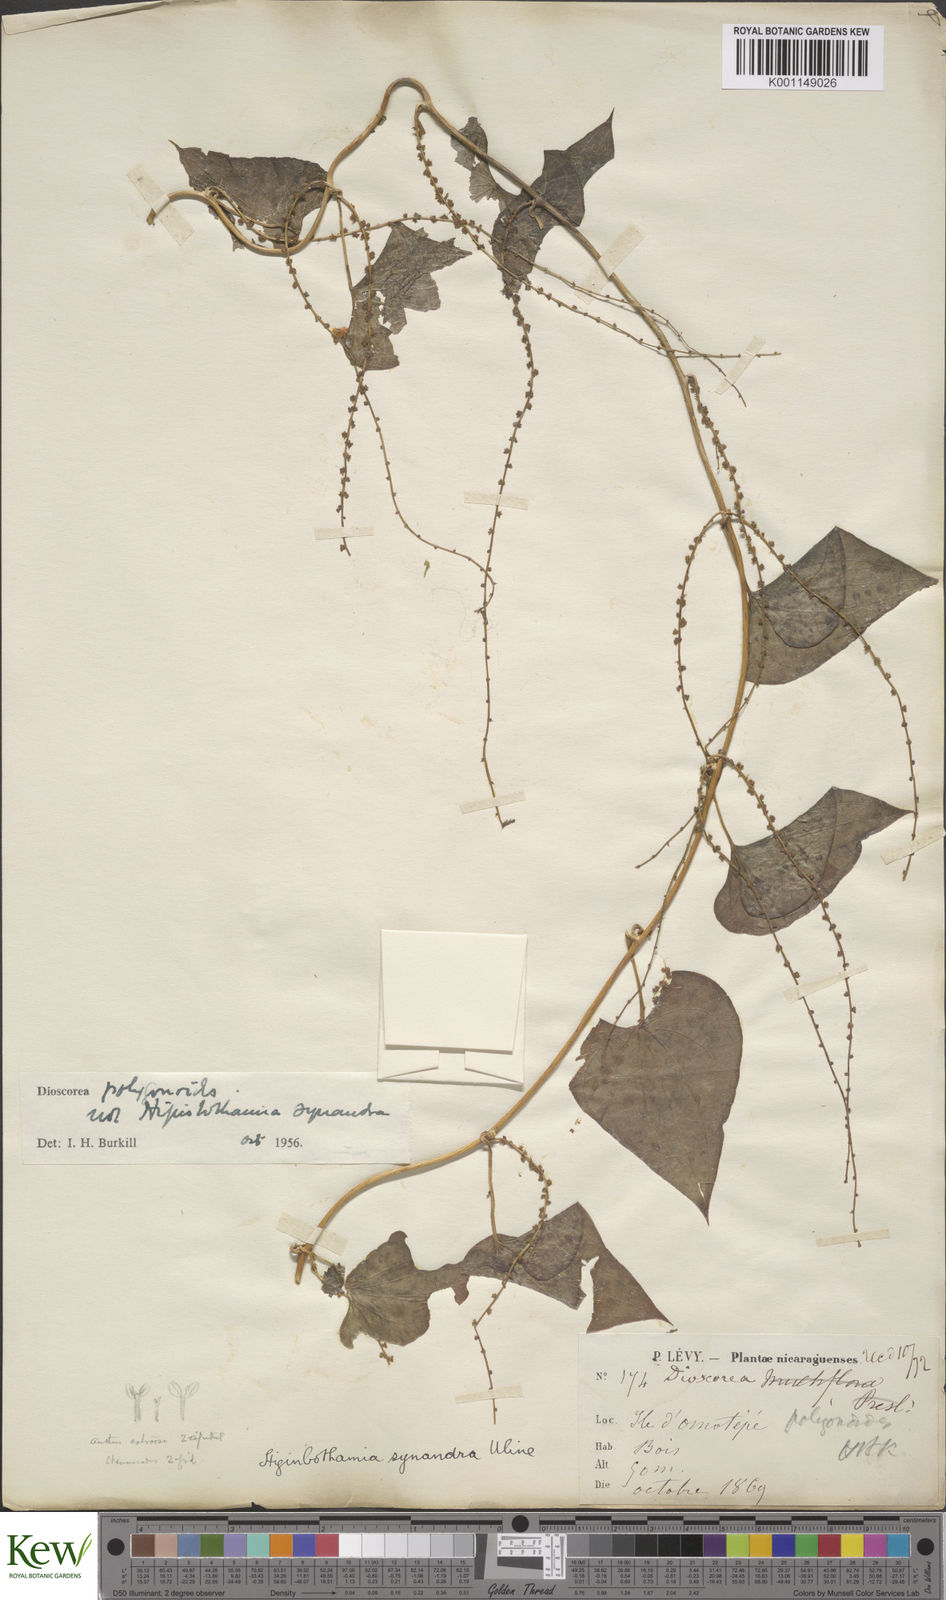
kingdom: Plantae
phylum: Tracheophyta
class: Liliopsida
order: Dioscoreales
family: Dioscoreaceae
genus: Dioscorea
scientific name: Dioscorea polygonoides
